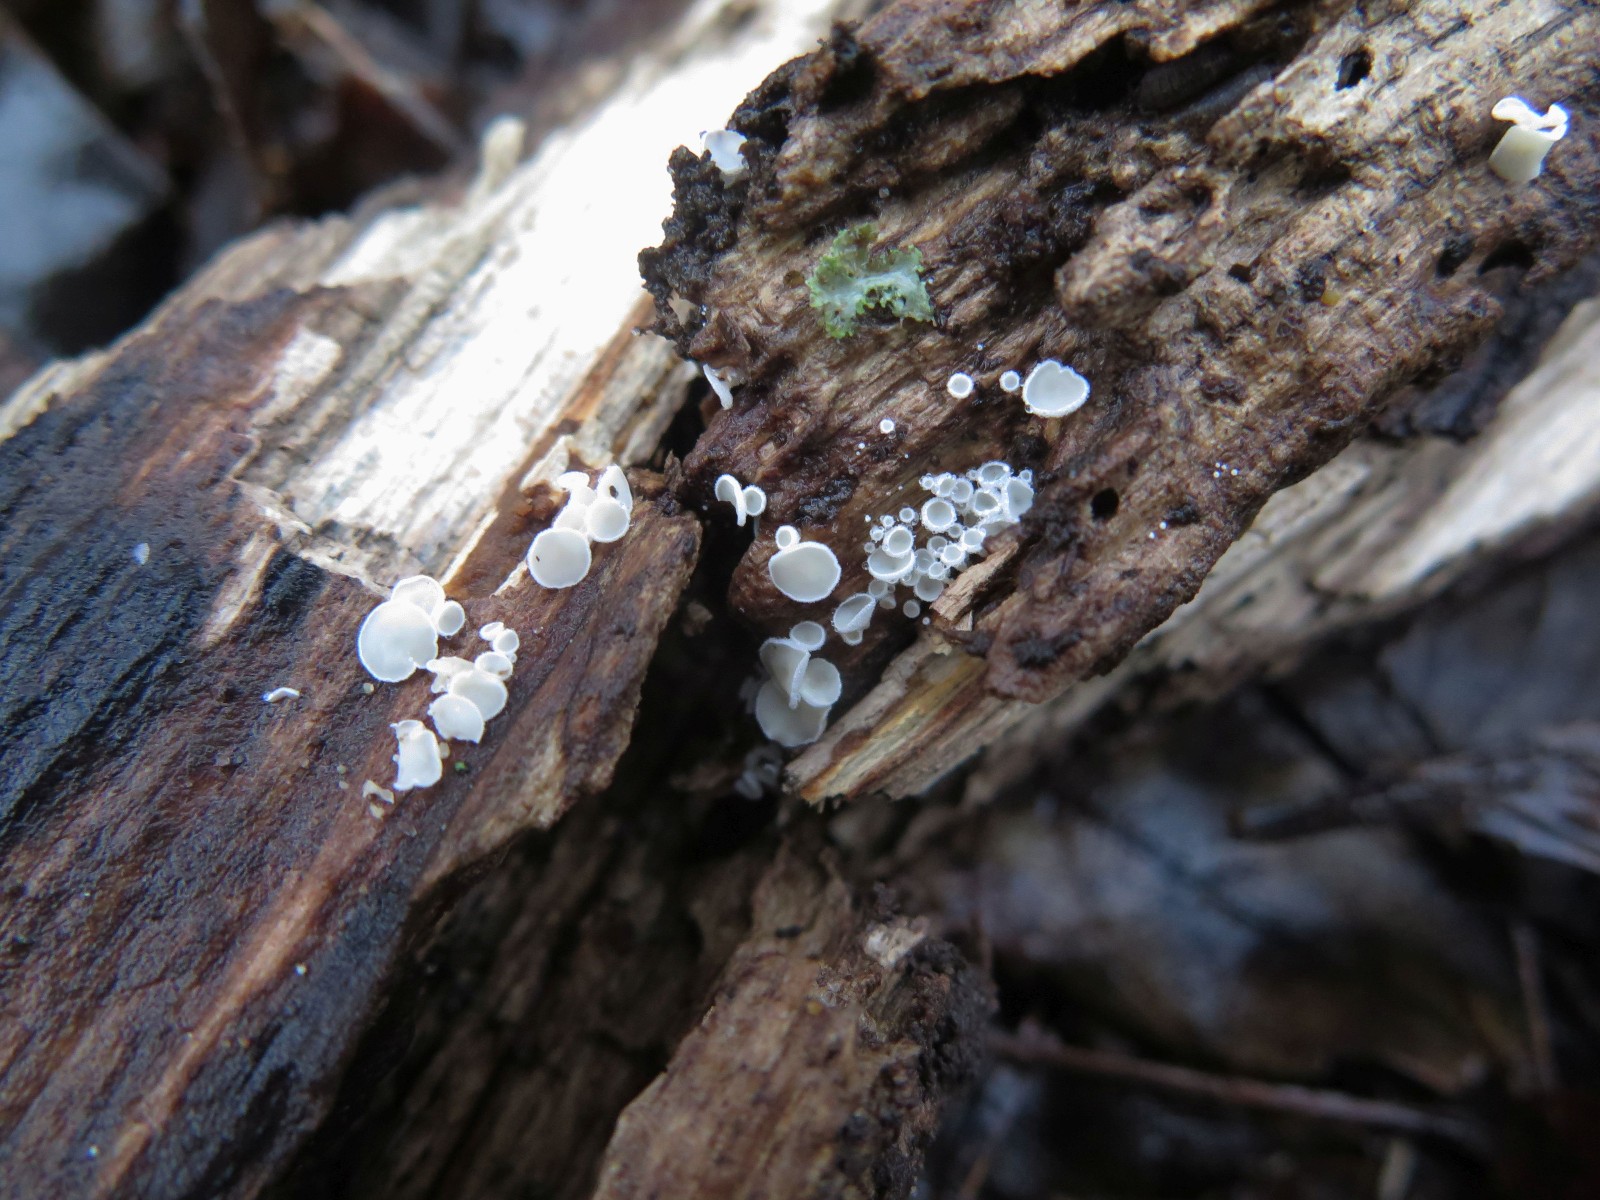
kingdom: Fungi
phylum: Ascomycota
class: Leotiomycetes
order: Helotiales
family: Lachnaceae
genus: Lachnum
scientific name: Lachnum
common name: frynseskive
